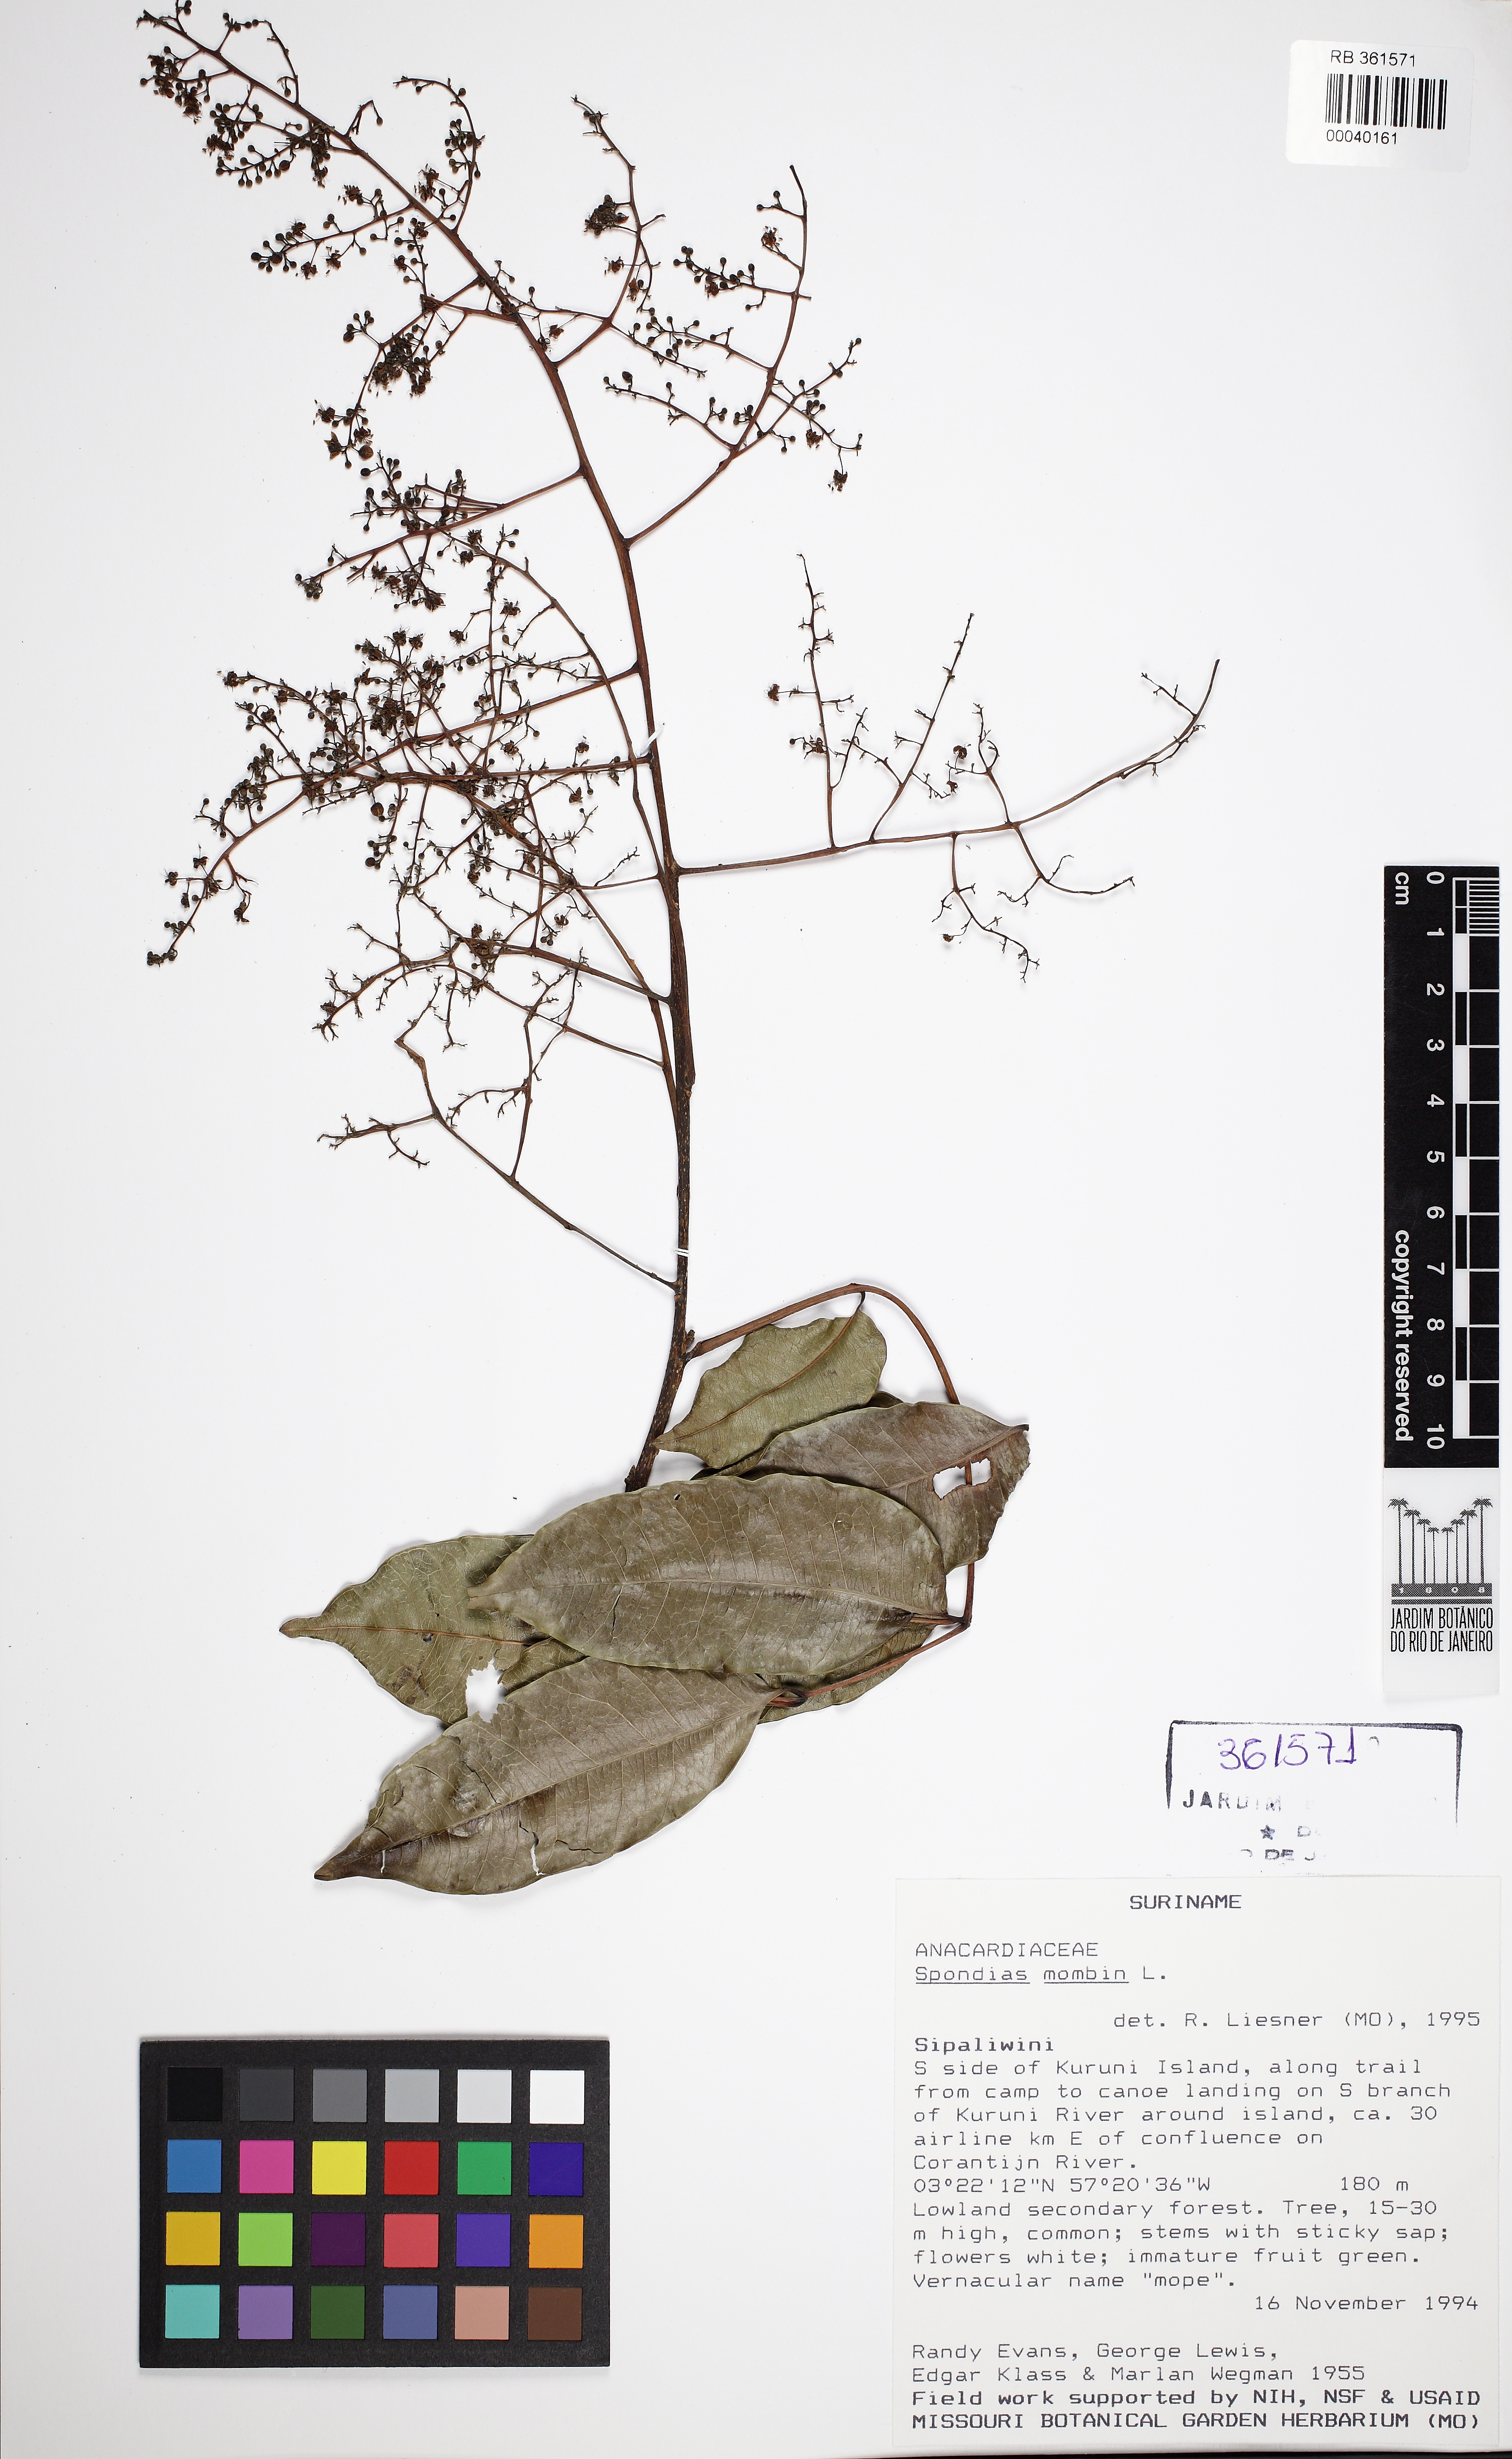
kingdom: Plantae
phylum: Tracheophyta
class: Magnoliopsida
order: Sapindales
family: Anacardiaceae
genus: Spondias
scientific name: Spondias mombin
